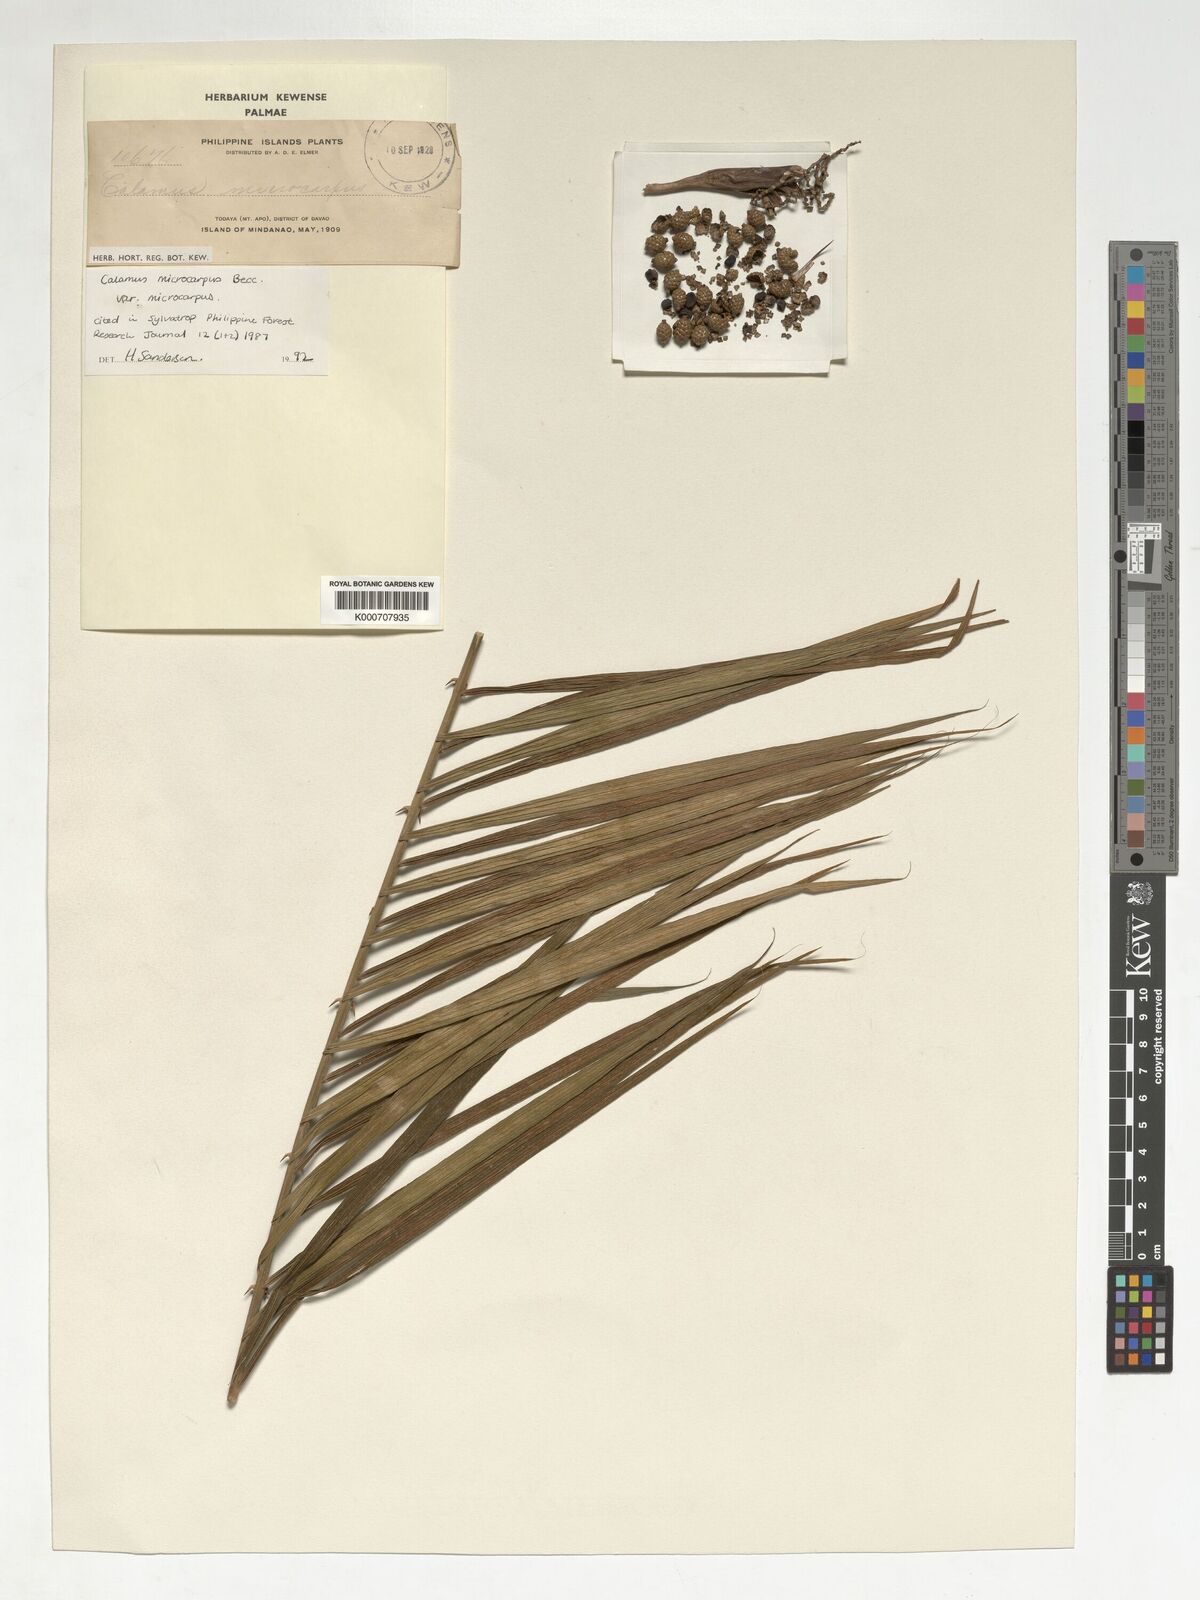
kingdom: Plantae
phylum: Tracheophyta
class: Liliopsida
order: Arecales
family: Arecaceae
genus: Calamus
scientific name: Calamus siphonospathus
